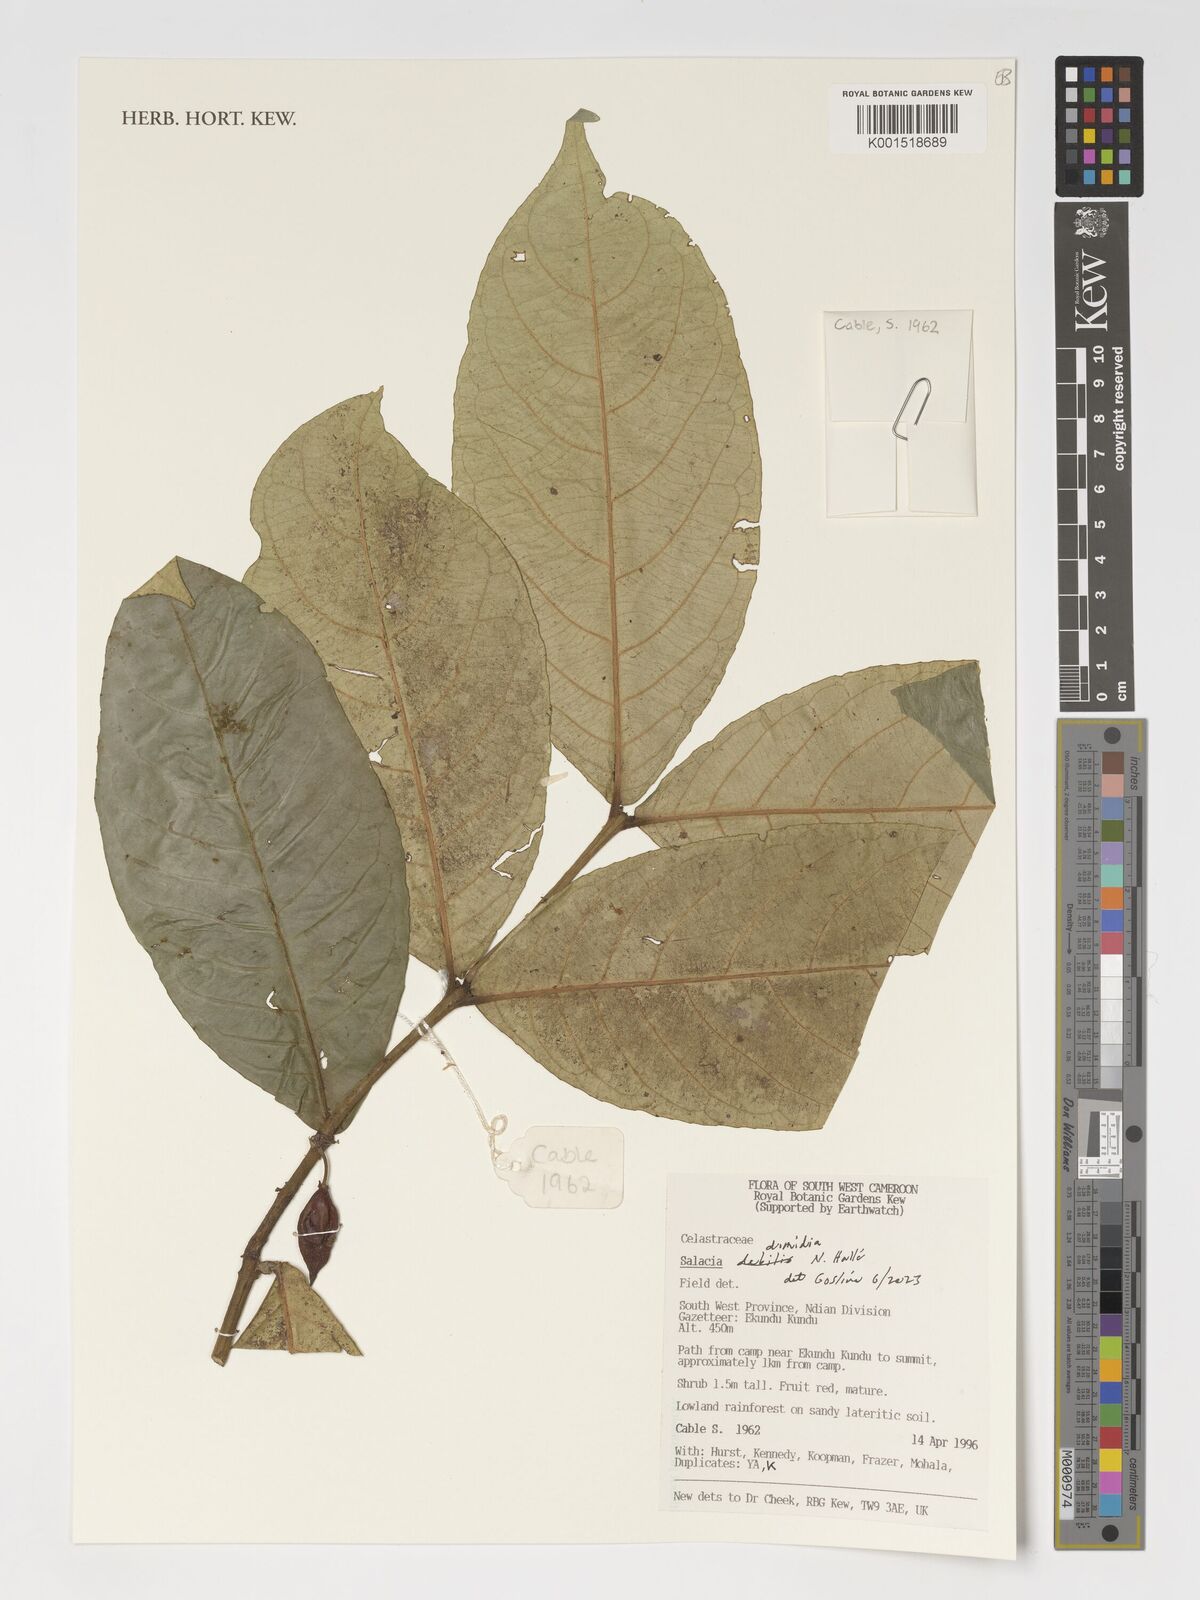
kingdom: Plantae
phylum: Tracheophyta
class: Magnoliopsida
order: Celastrales
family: Celastraceae
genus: Salacia
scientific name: Salacia dimidia
